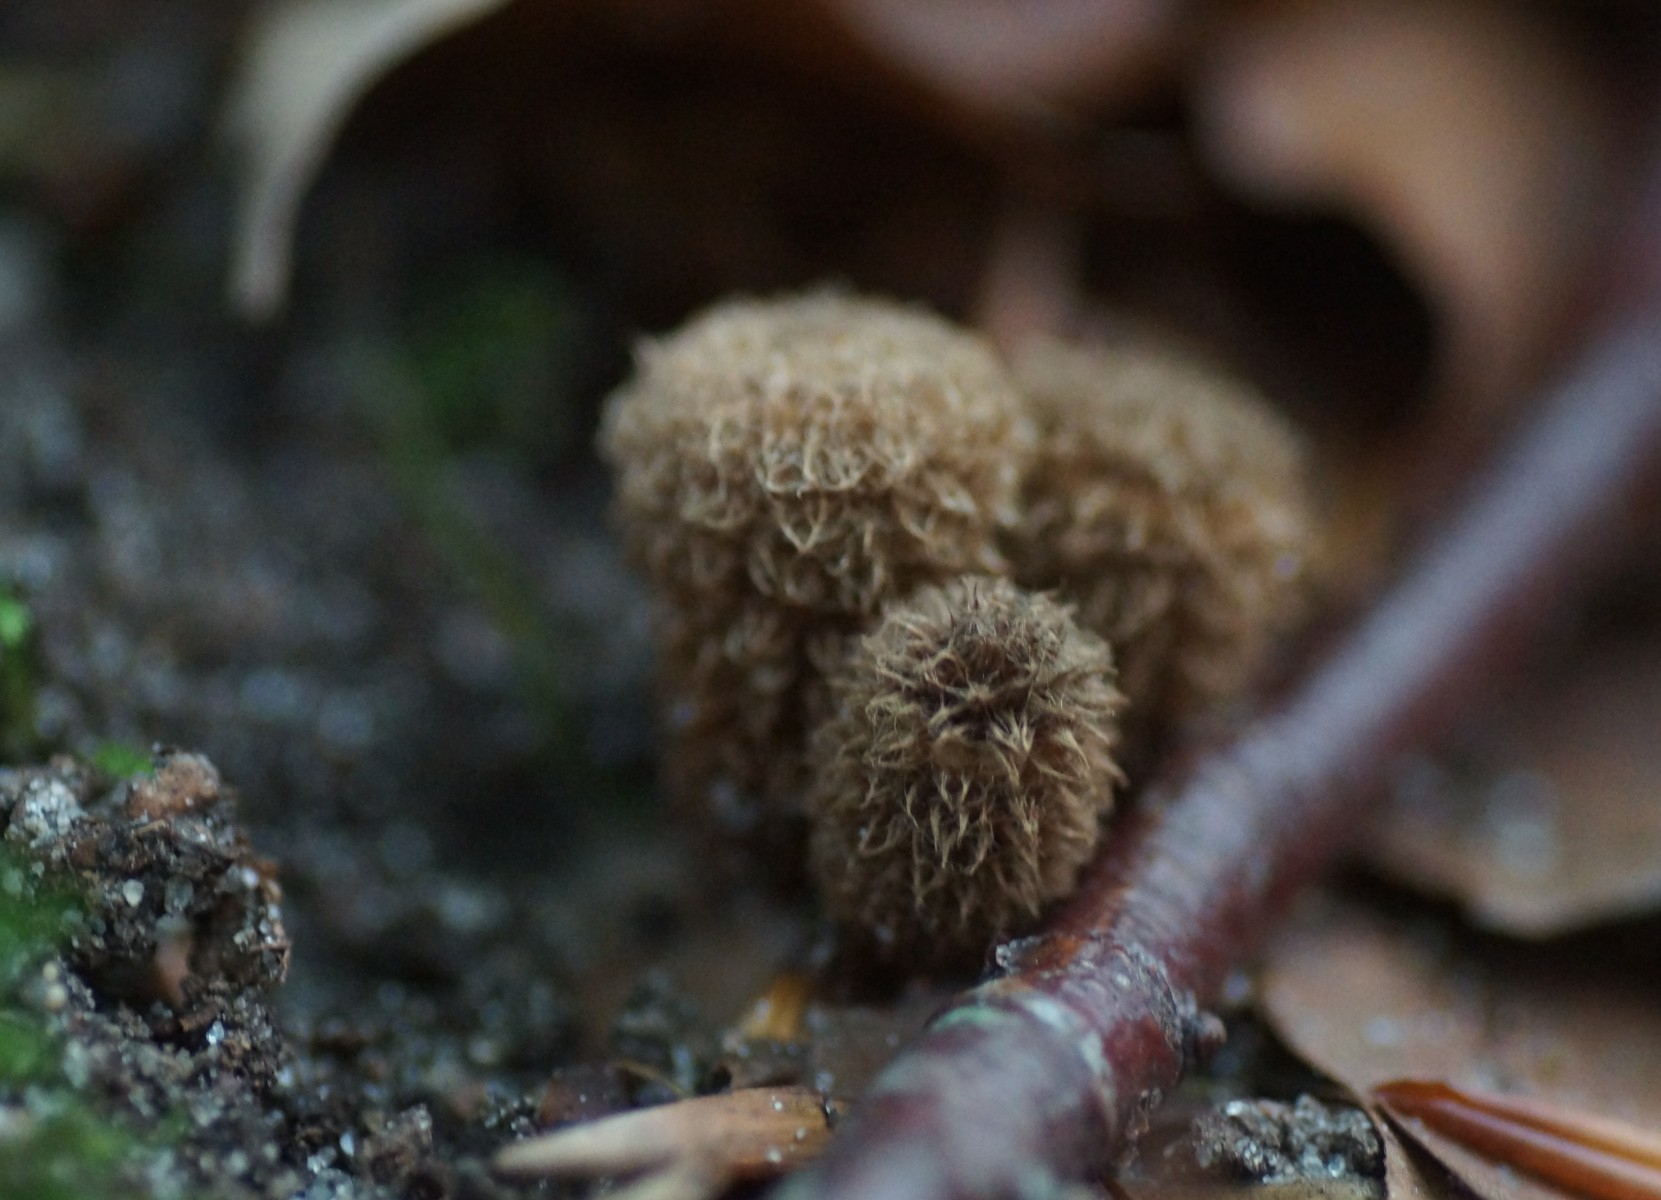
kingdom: Fungi
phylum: Basidiomycota
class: Agaricomycetes
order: Agaricales
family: Agaricaceae
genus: Cyathus
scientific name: Cyathus striatus
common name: stribet redesvamp
